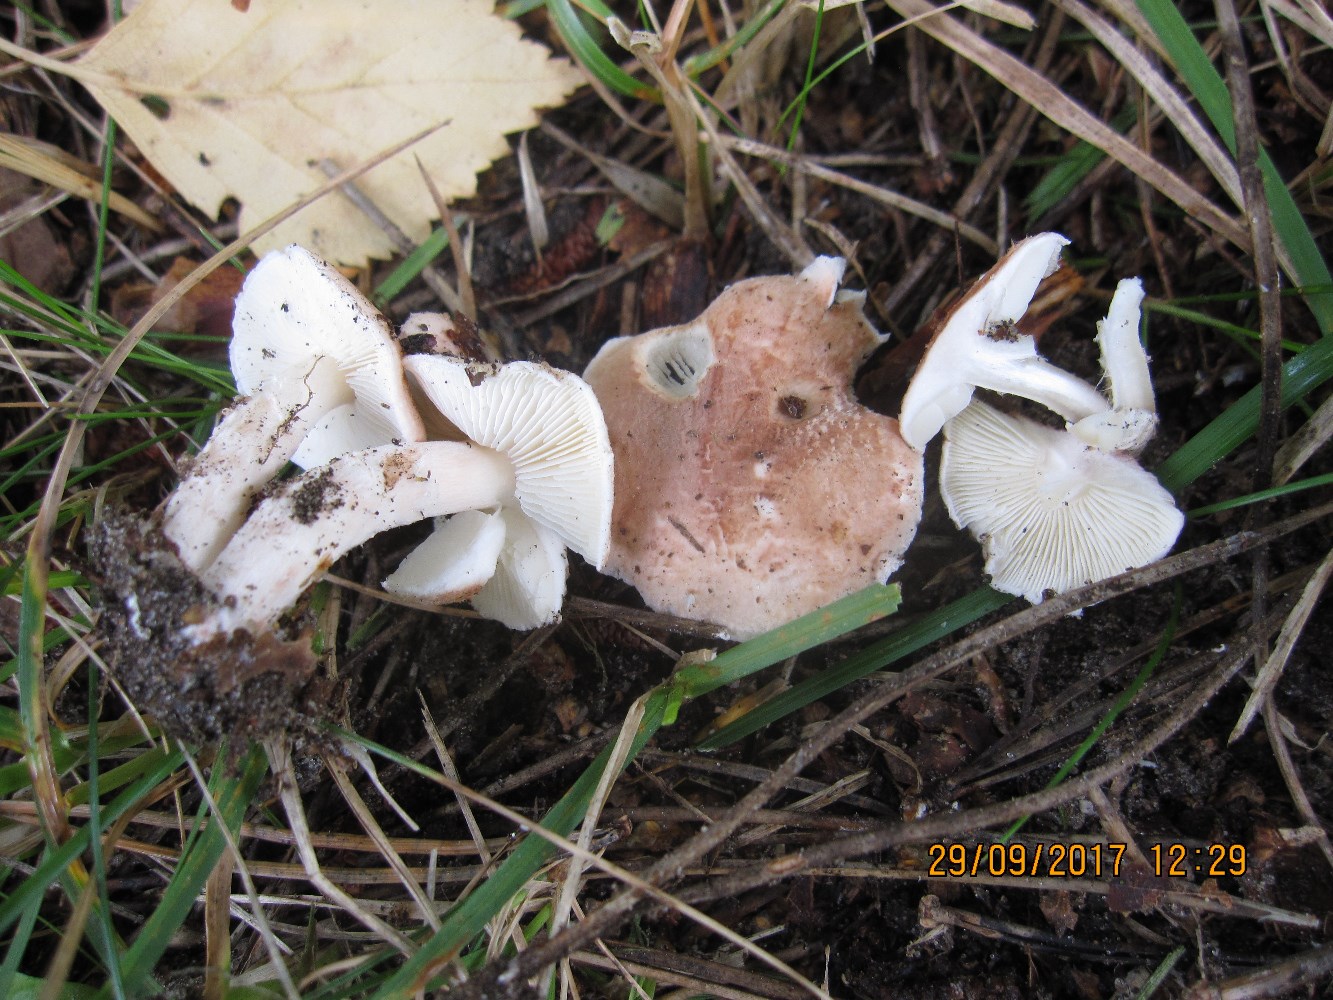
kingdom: Fungi
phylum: Basidiomycota
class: Agaricomycetes
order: Agaricales
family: Agaricaceae
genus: Lepiota
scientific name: Lepiota subincarnata
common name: kødfarvet parasolhat
